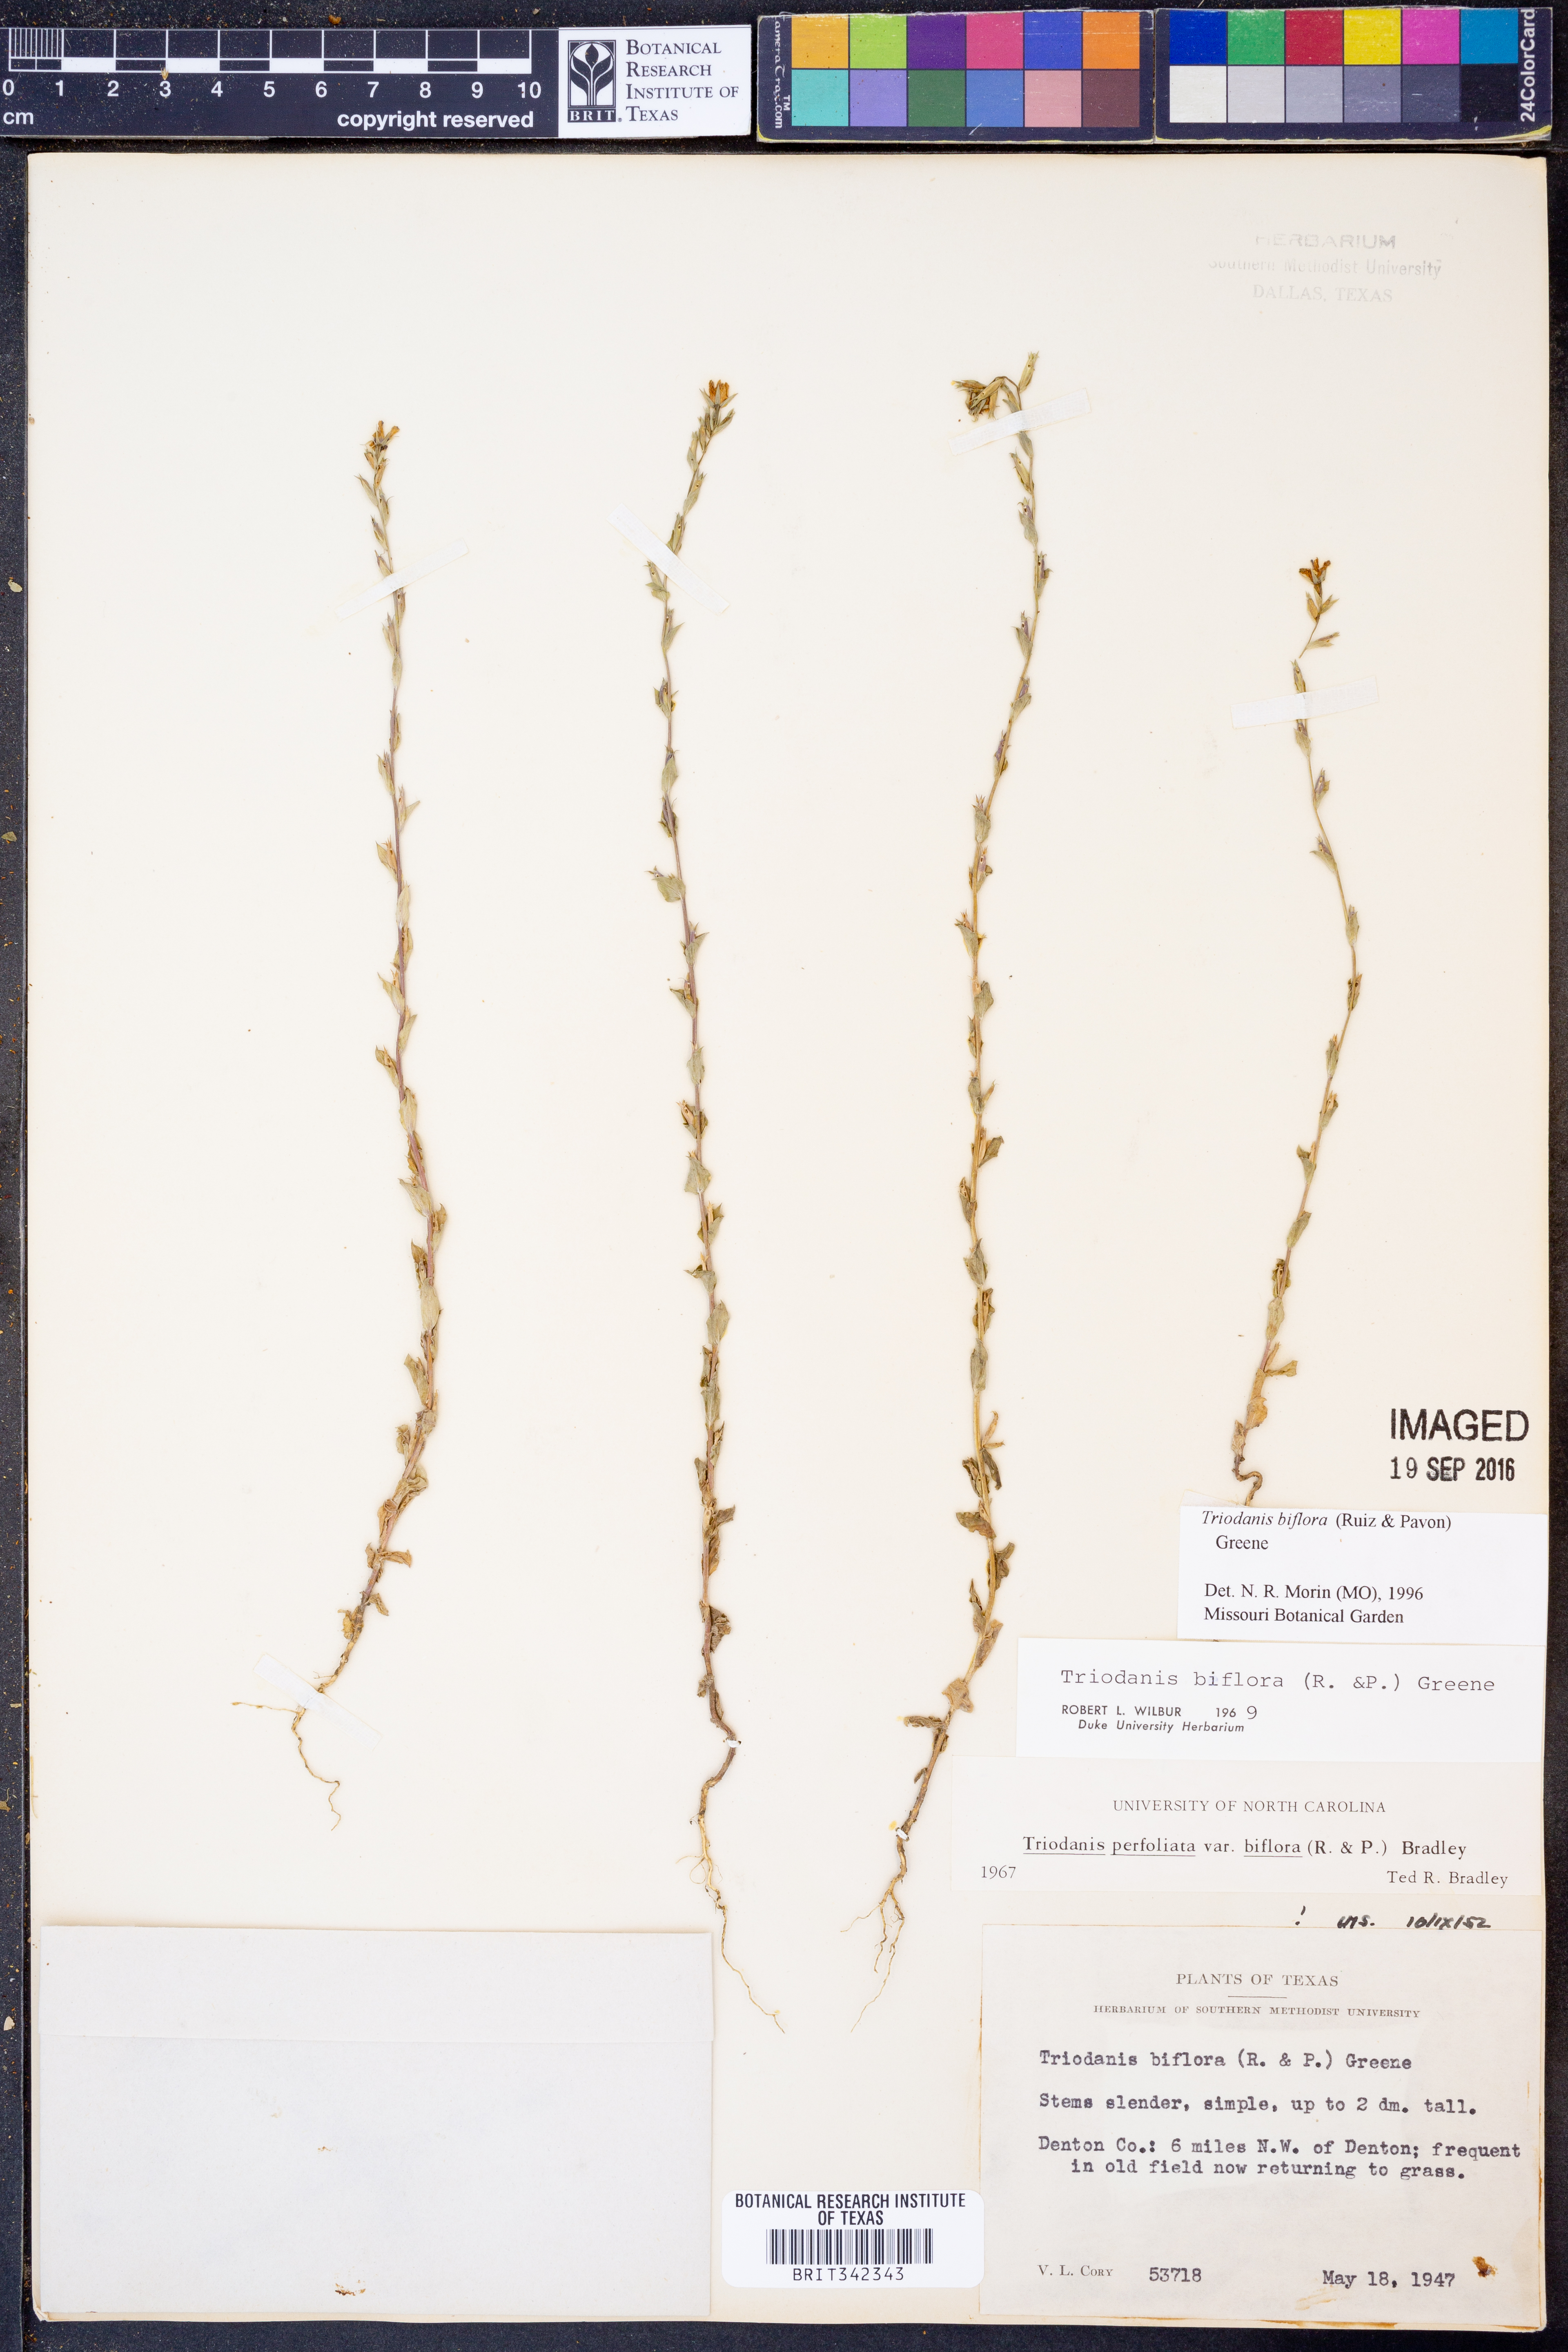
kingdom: Plantae
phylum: Tracheophyta
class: Magnoliopsida
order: Asterales
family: Campanulaceae
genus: Triodanis
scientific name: Triodanis perfoliata
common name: Clasping venus' looking-glass
